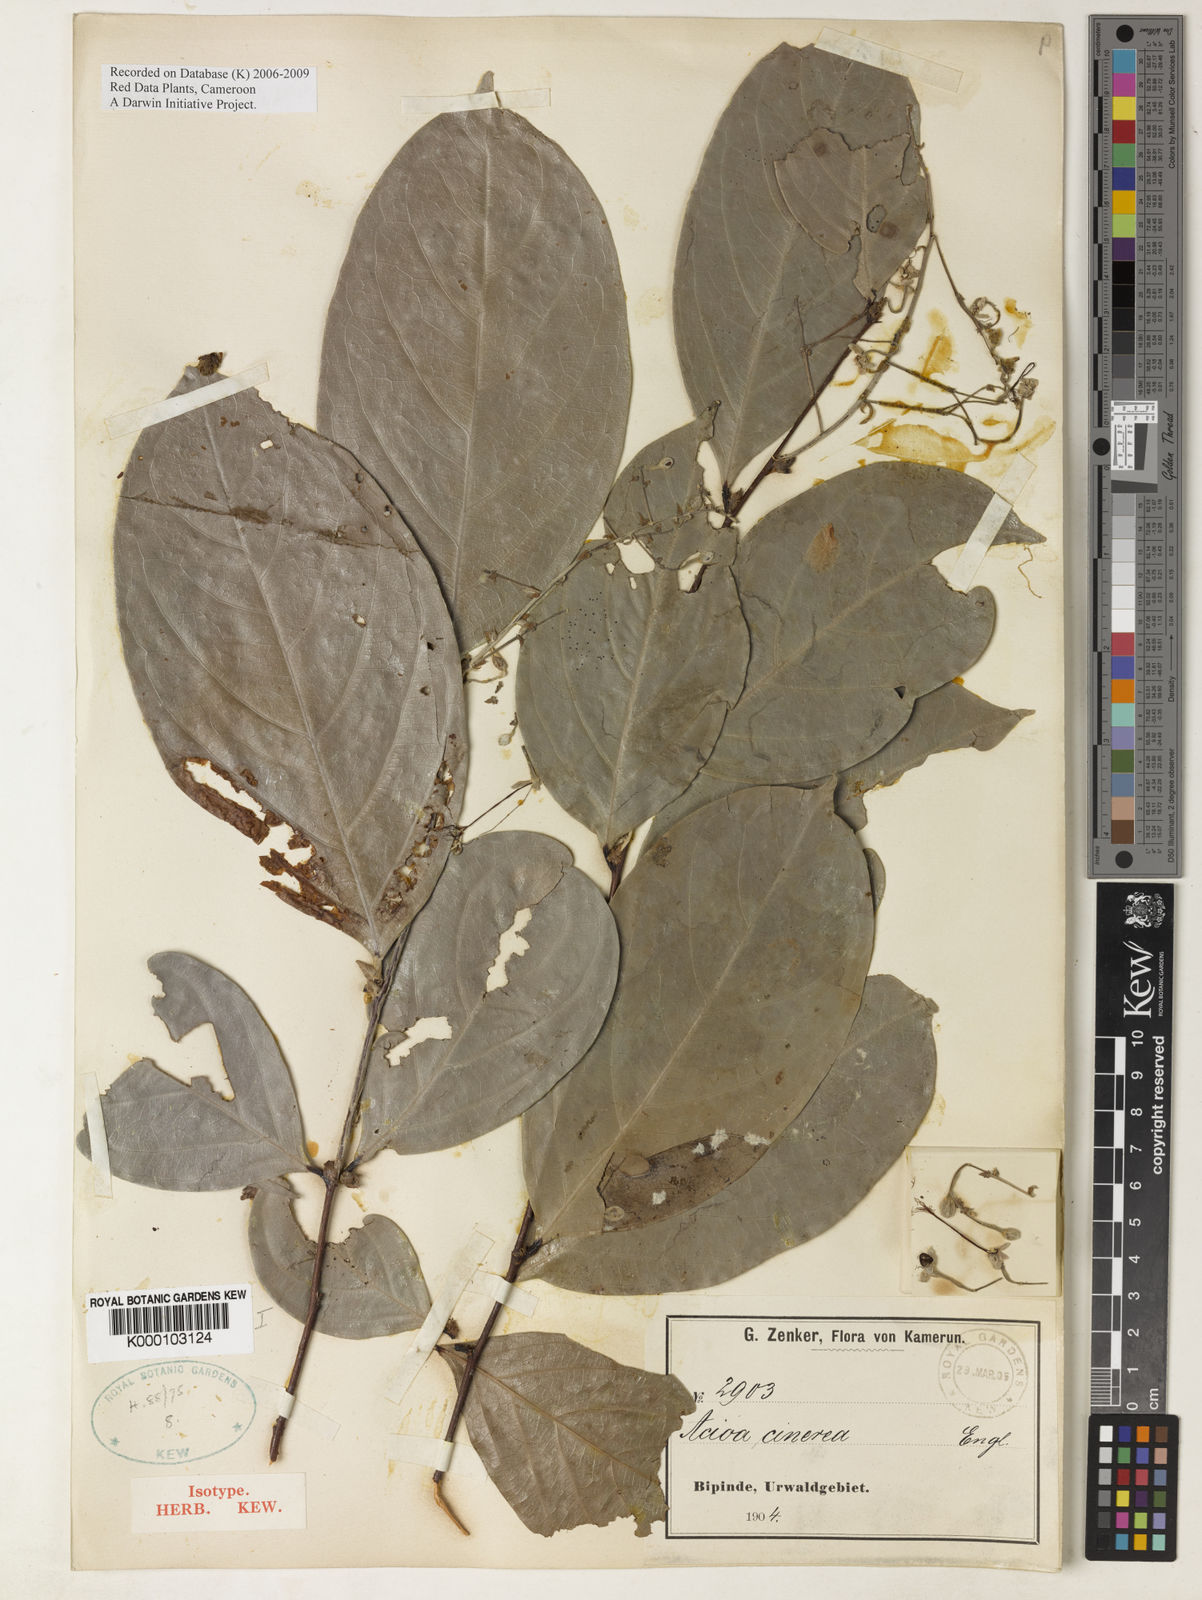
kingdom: Plantae
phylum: Tracheophyta
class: Magnoliopsida
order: Malpighiales
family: Chrysobalanaceae
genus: Dactyladenia
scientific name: Dactyladenia cinerea
